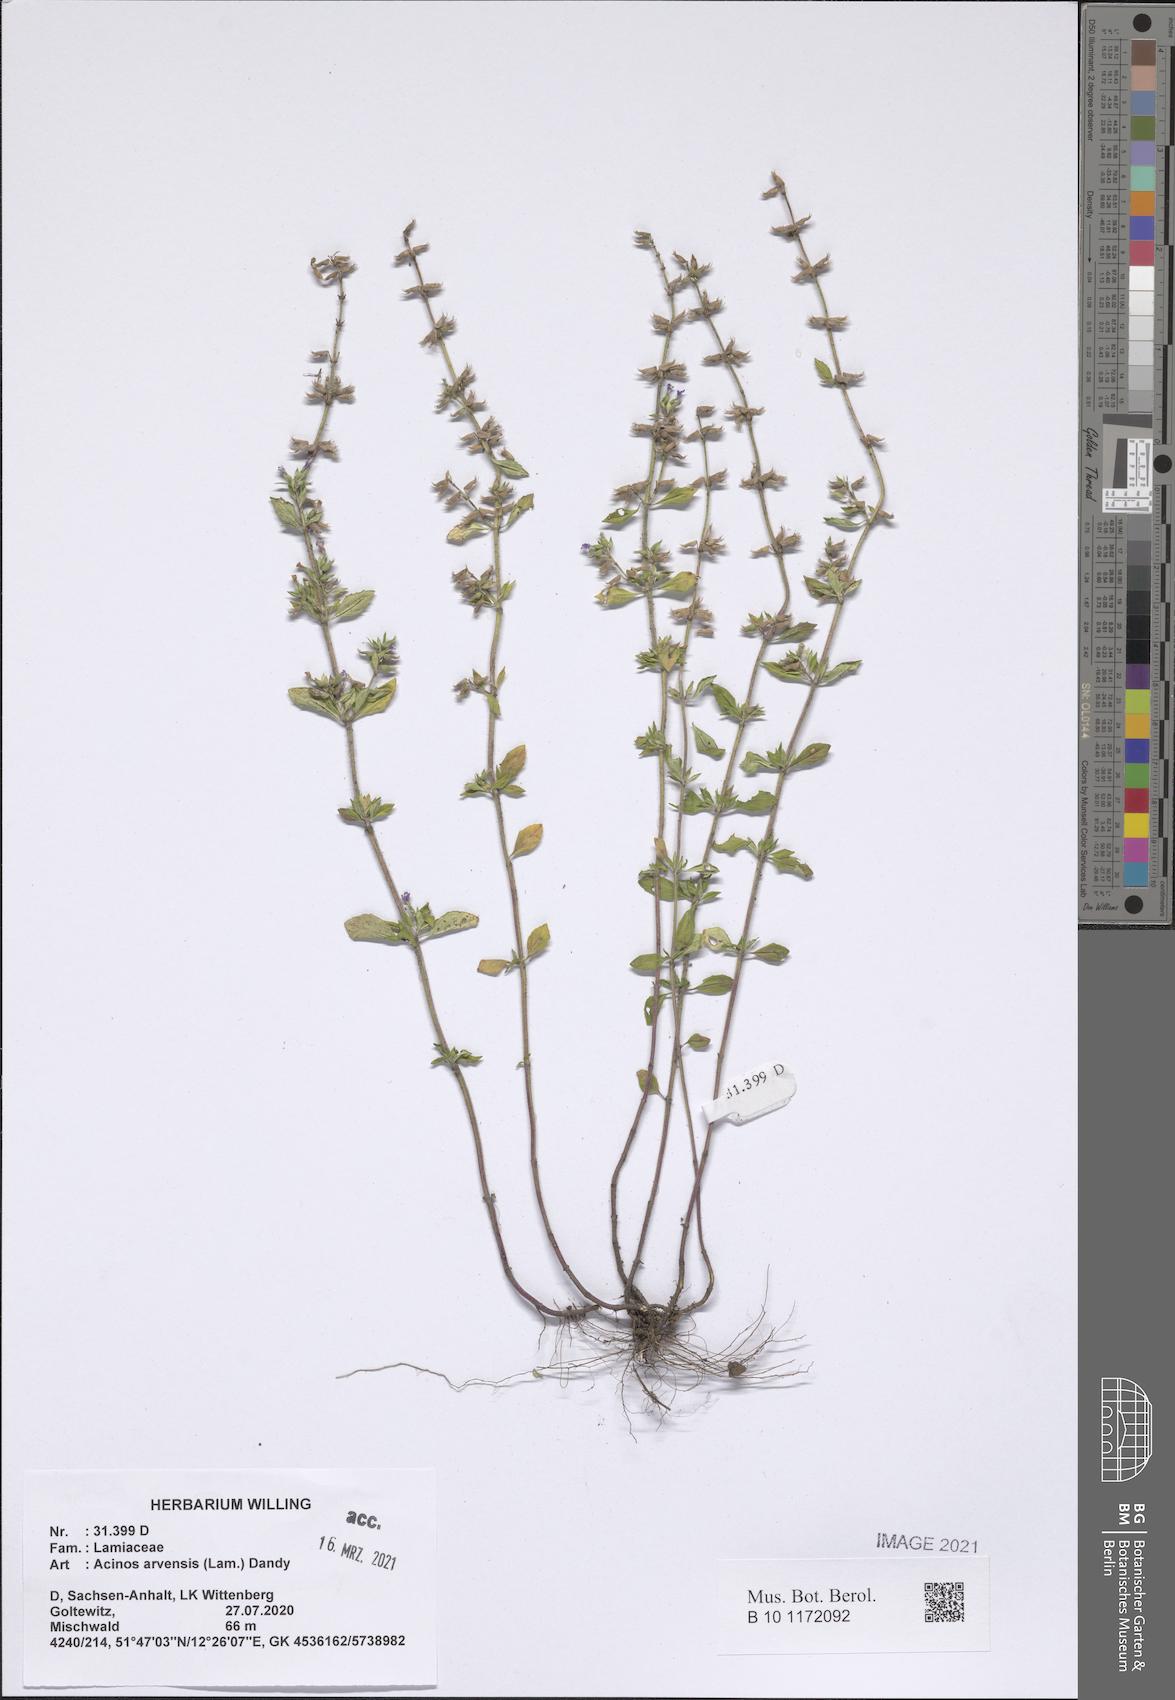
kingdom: Plantae
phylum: Tracheophyta
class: Magnoliopsida
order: Lamiales
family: Lamiaceae
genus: Clinopodium
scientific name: Clinopodium acinos
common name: Basil thyme
